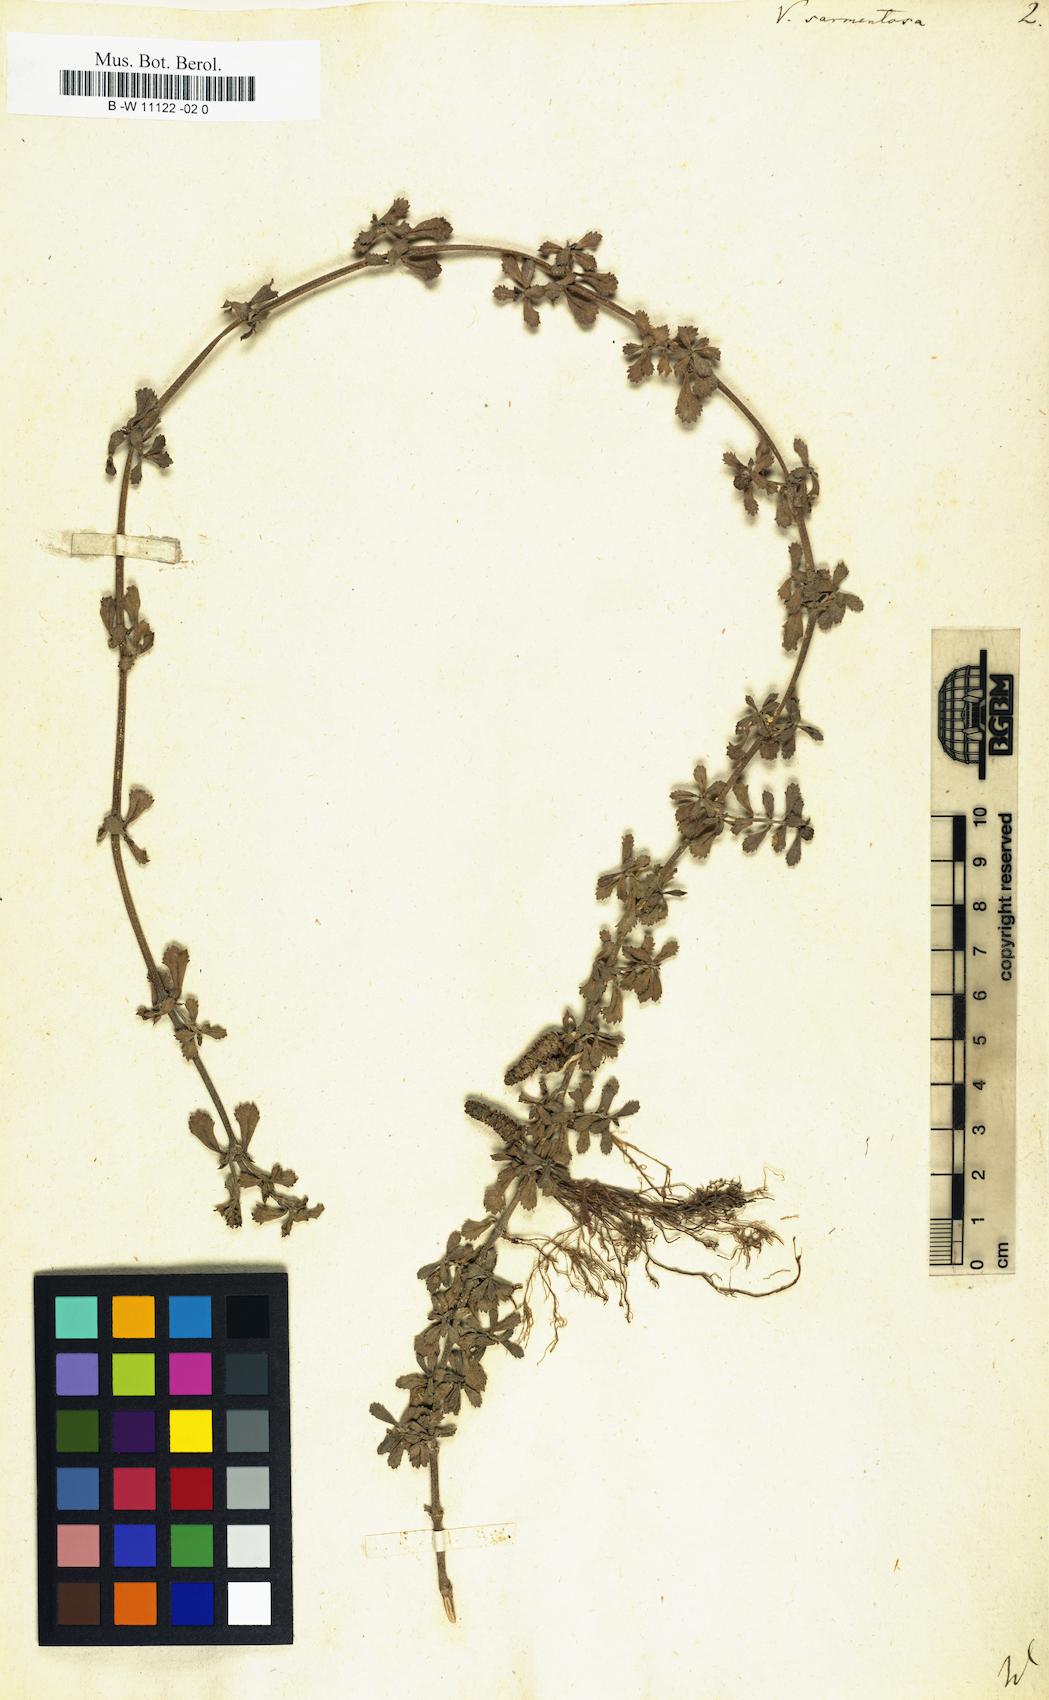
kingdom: Plantae
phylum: Tracheophyta
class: Magnoliopsida
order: Lamiales
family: Verbenaceae
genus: Phyla
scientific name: Phyla nodiflora
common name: Frogfruit
